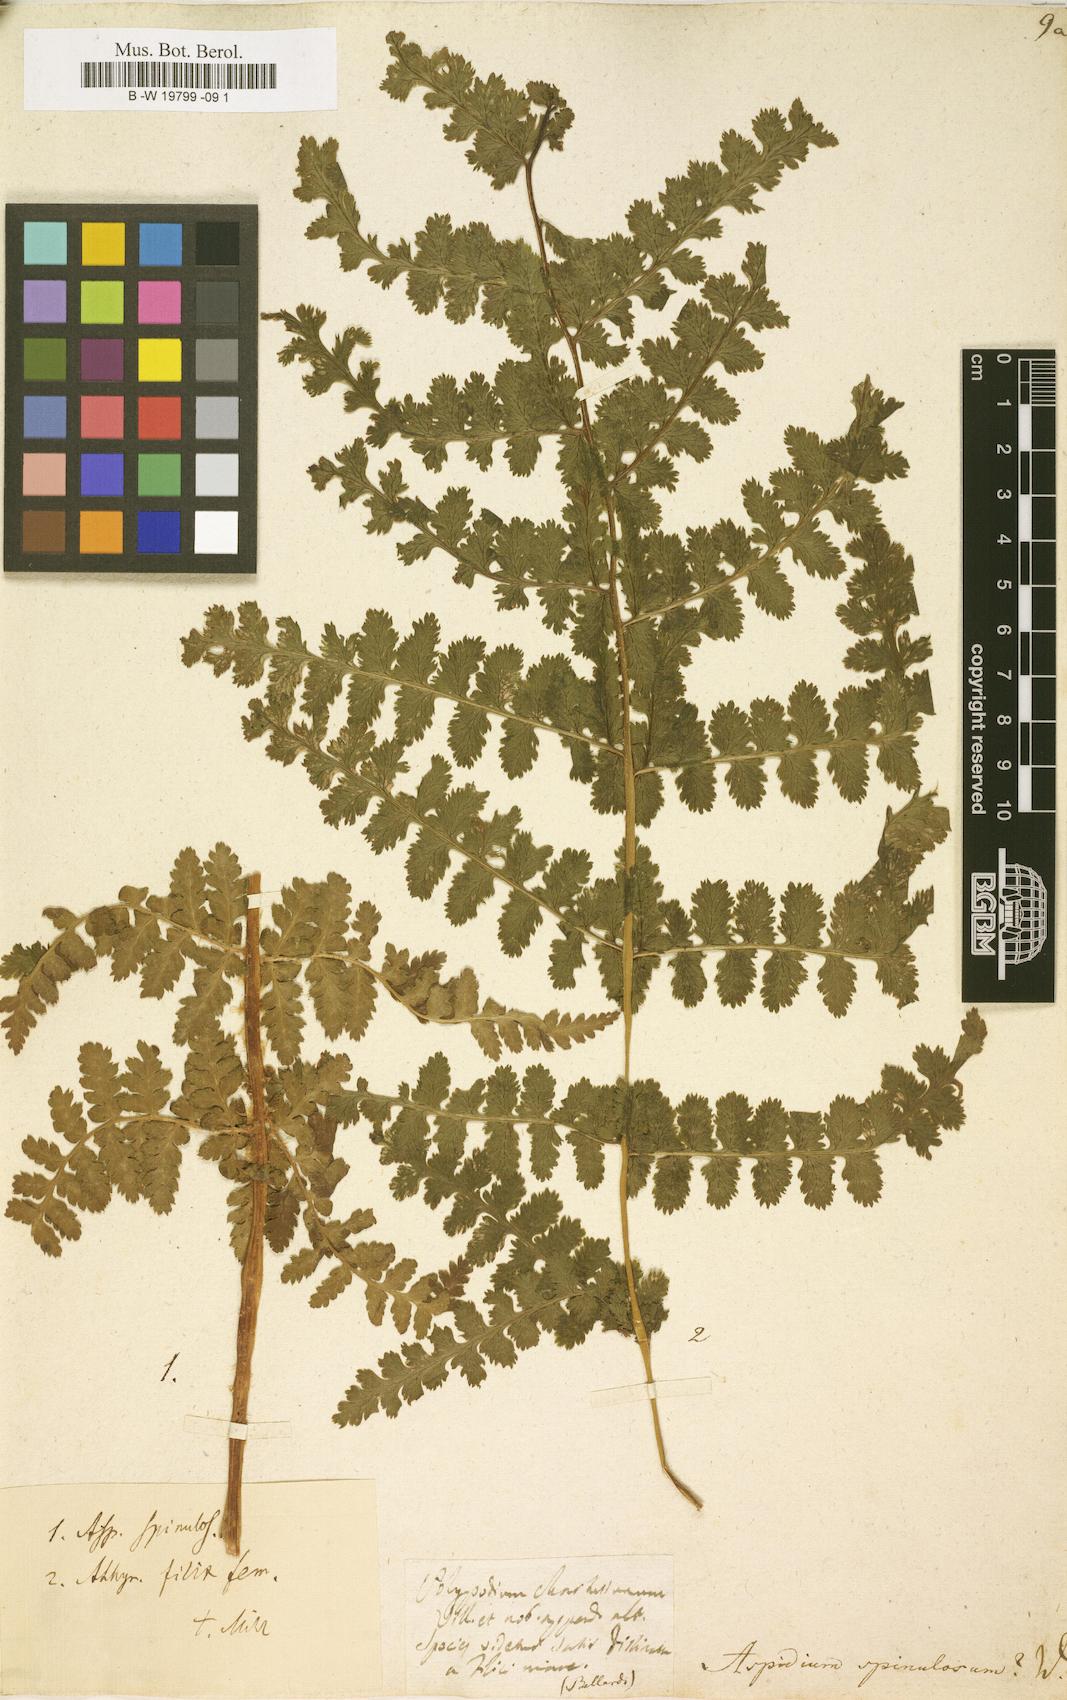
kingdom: Plantae
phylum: Tracheophyta
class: Polypodiopsida
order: Polypodiales
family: Dryopteridaceae
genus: Dryopteris
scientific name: Dryopteris
